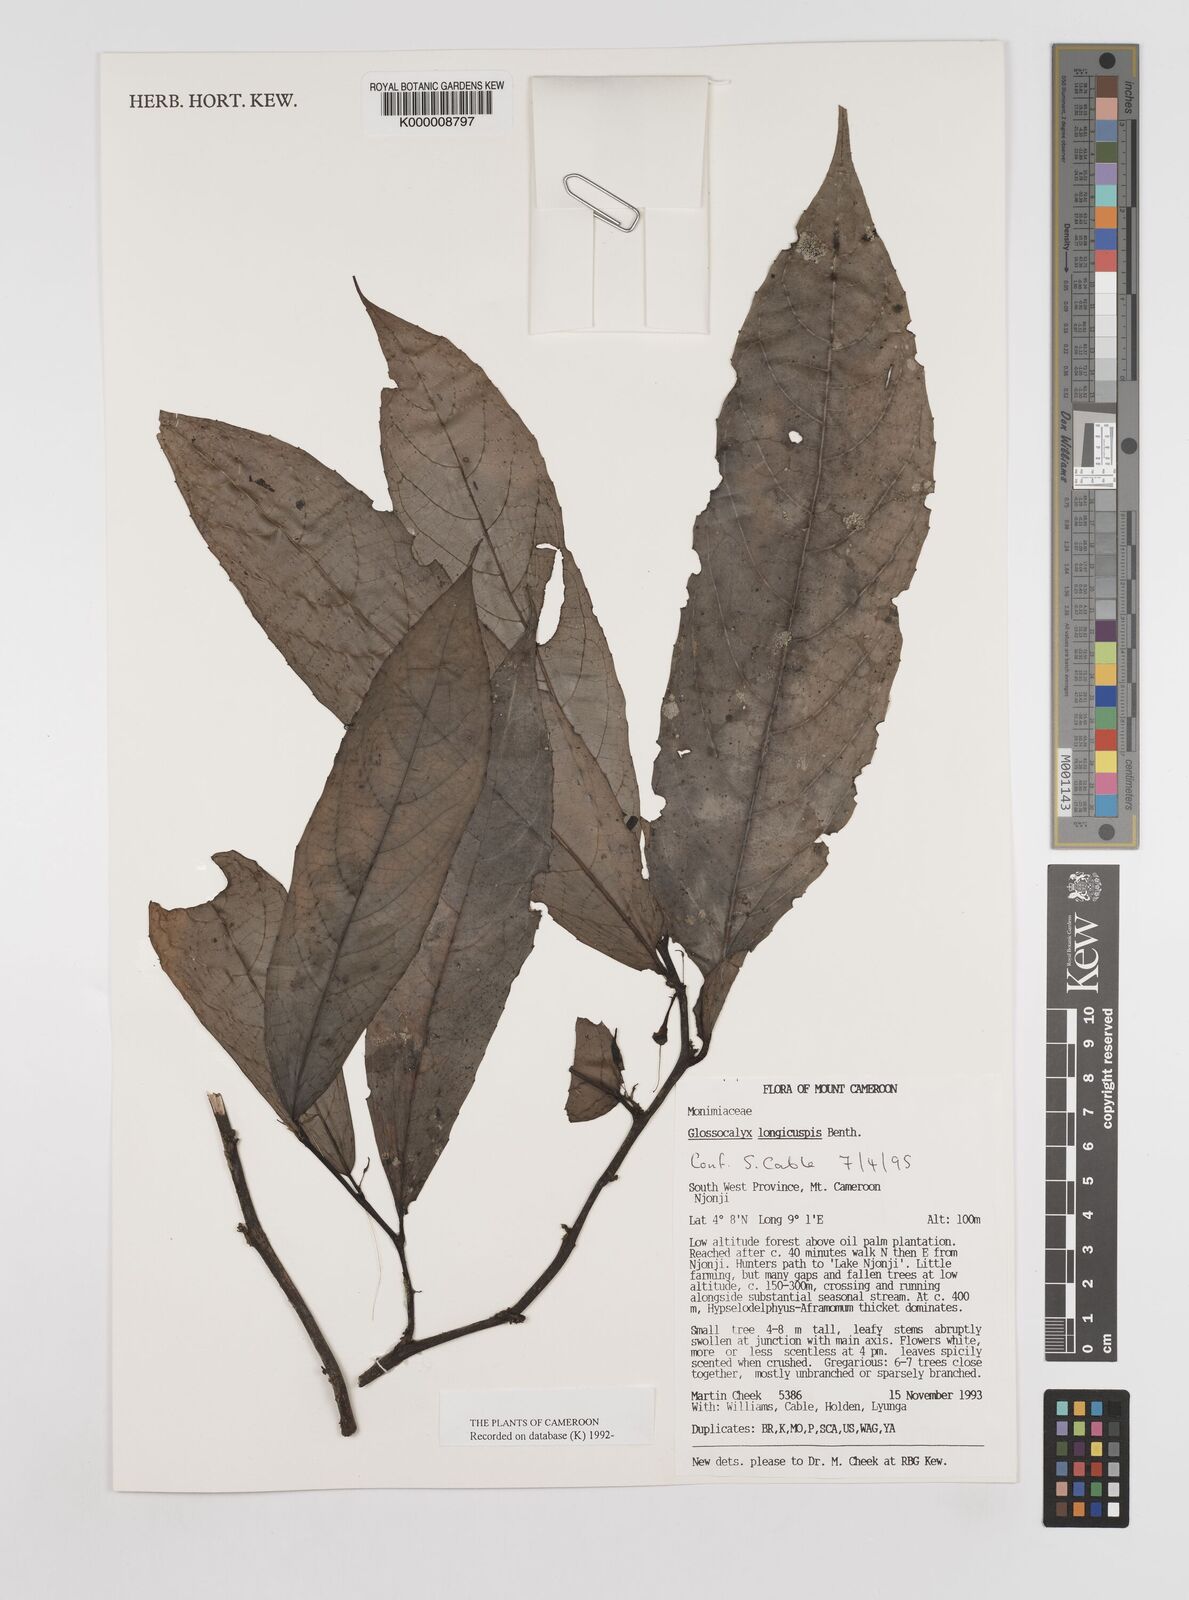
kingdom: Plantae
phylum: Tracheophyta
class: Magnoliopsida
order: Laurales
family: Siparunaceae
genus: Glossocalyx
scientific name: Glossocalyx longicuspis
